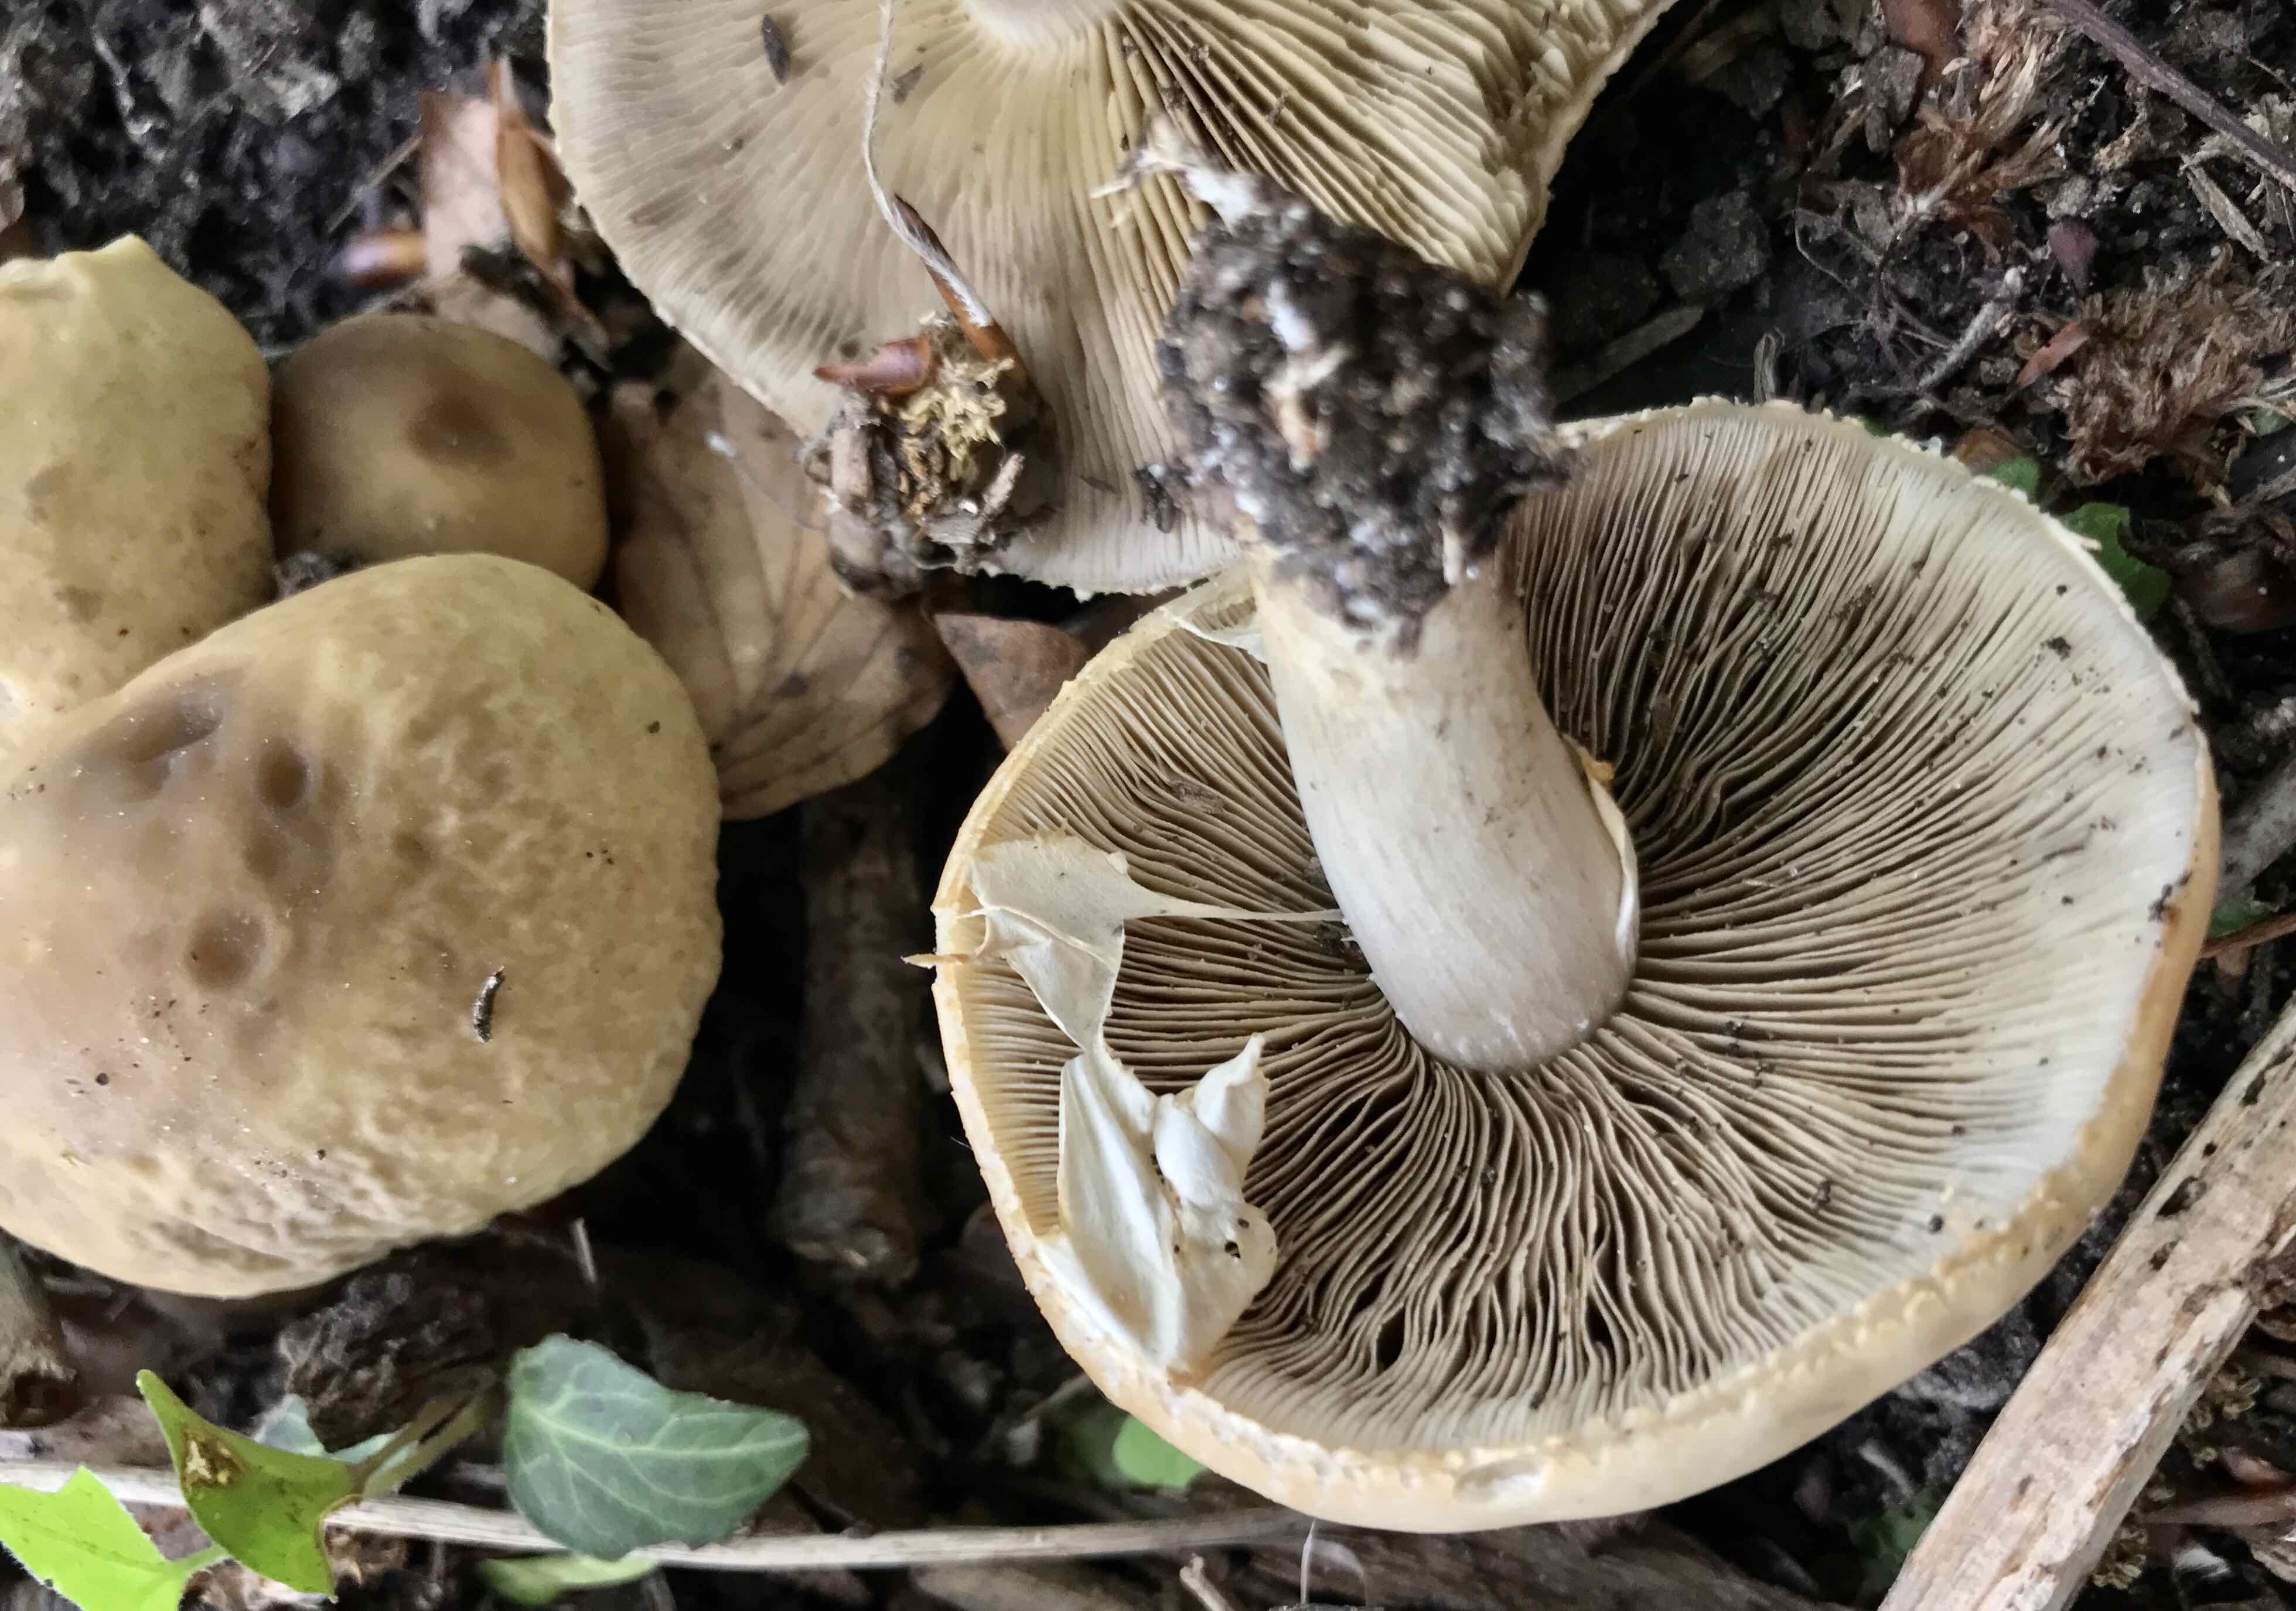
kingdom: Fungi
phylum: Basidiomycota
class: Agaricomycetes
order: Agaricales
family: Strophariaceae
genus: Agrocybe
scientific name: Agrocybe praecox
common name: tidlig agerhat
